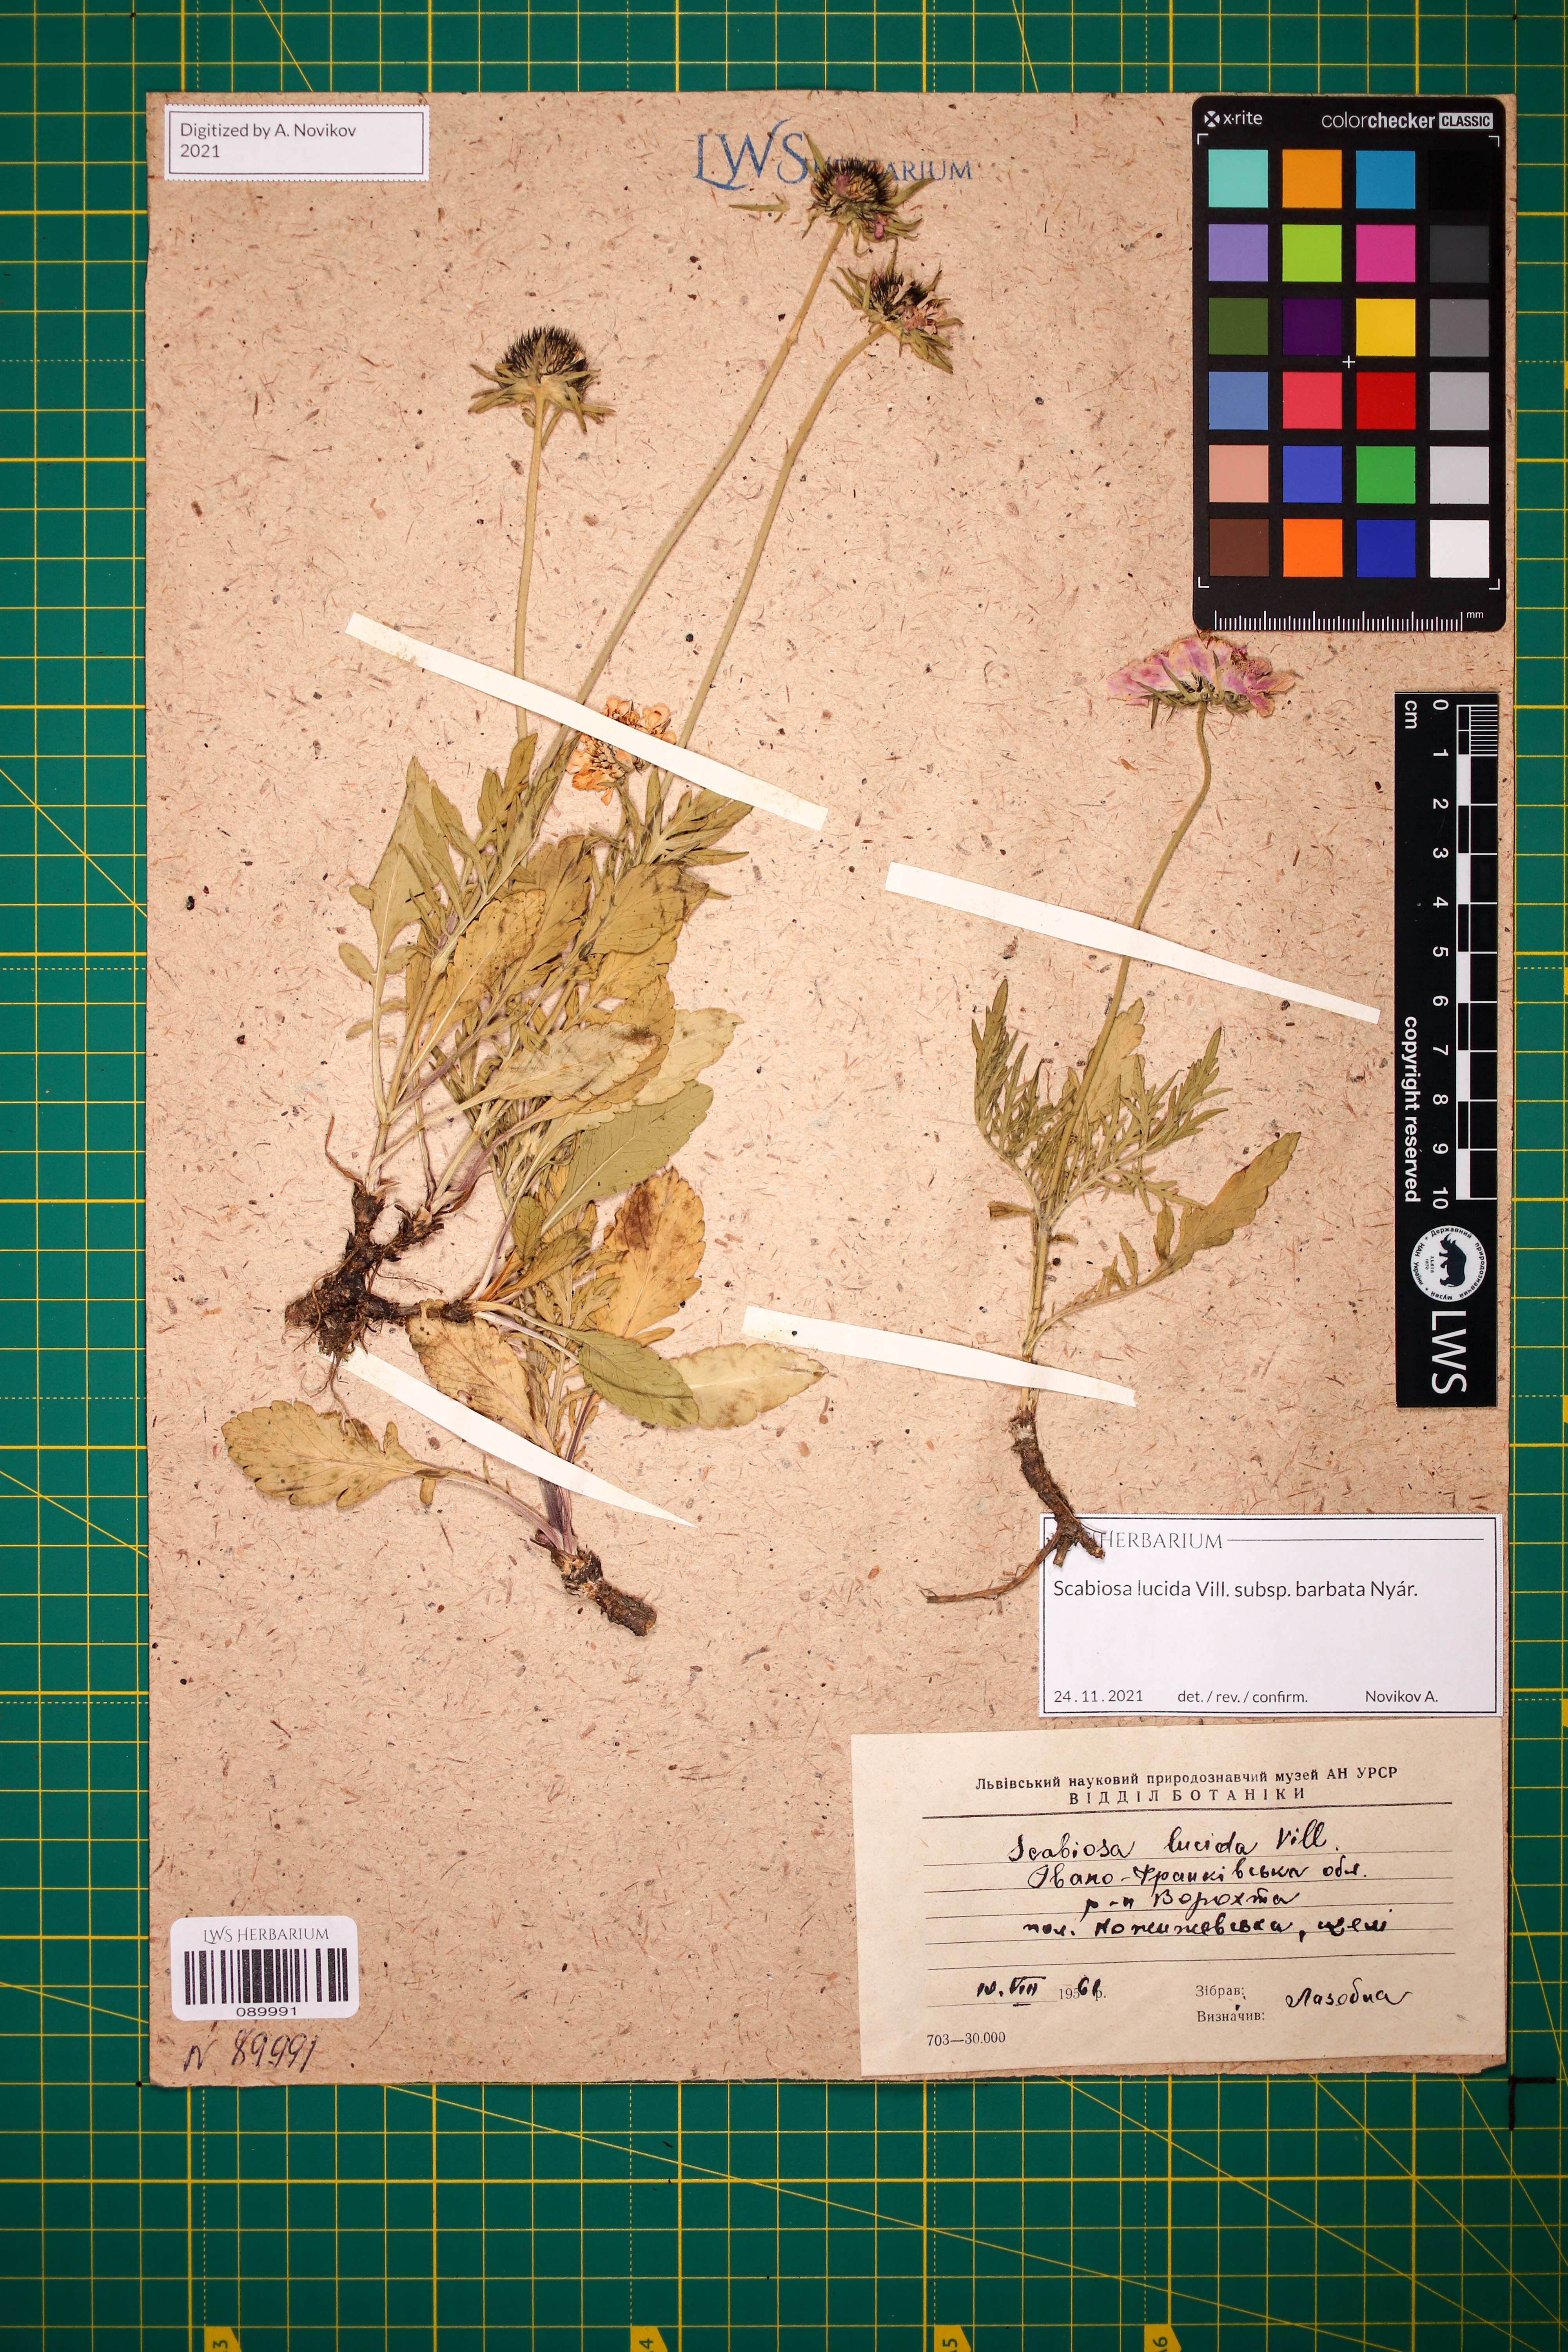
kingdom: Plantae
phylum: Tracheophyta
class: Magnoliopsida
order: Dipsacales
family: Caprifoliaceae
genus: Scabiosa
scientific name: Scabiosa lucida
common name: Shining scabious
